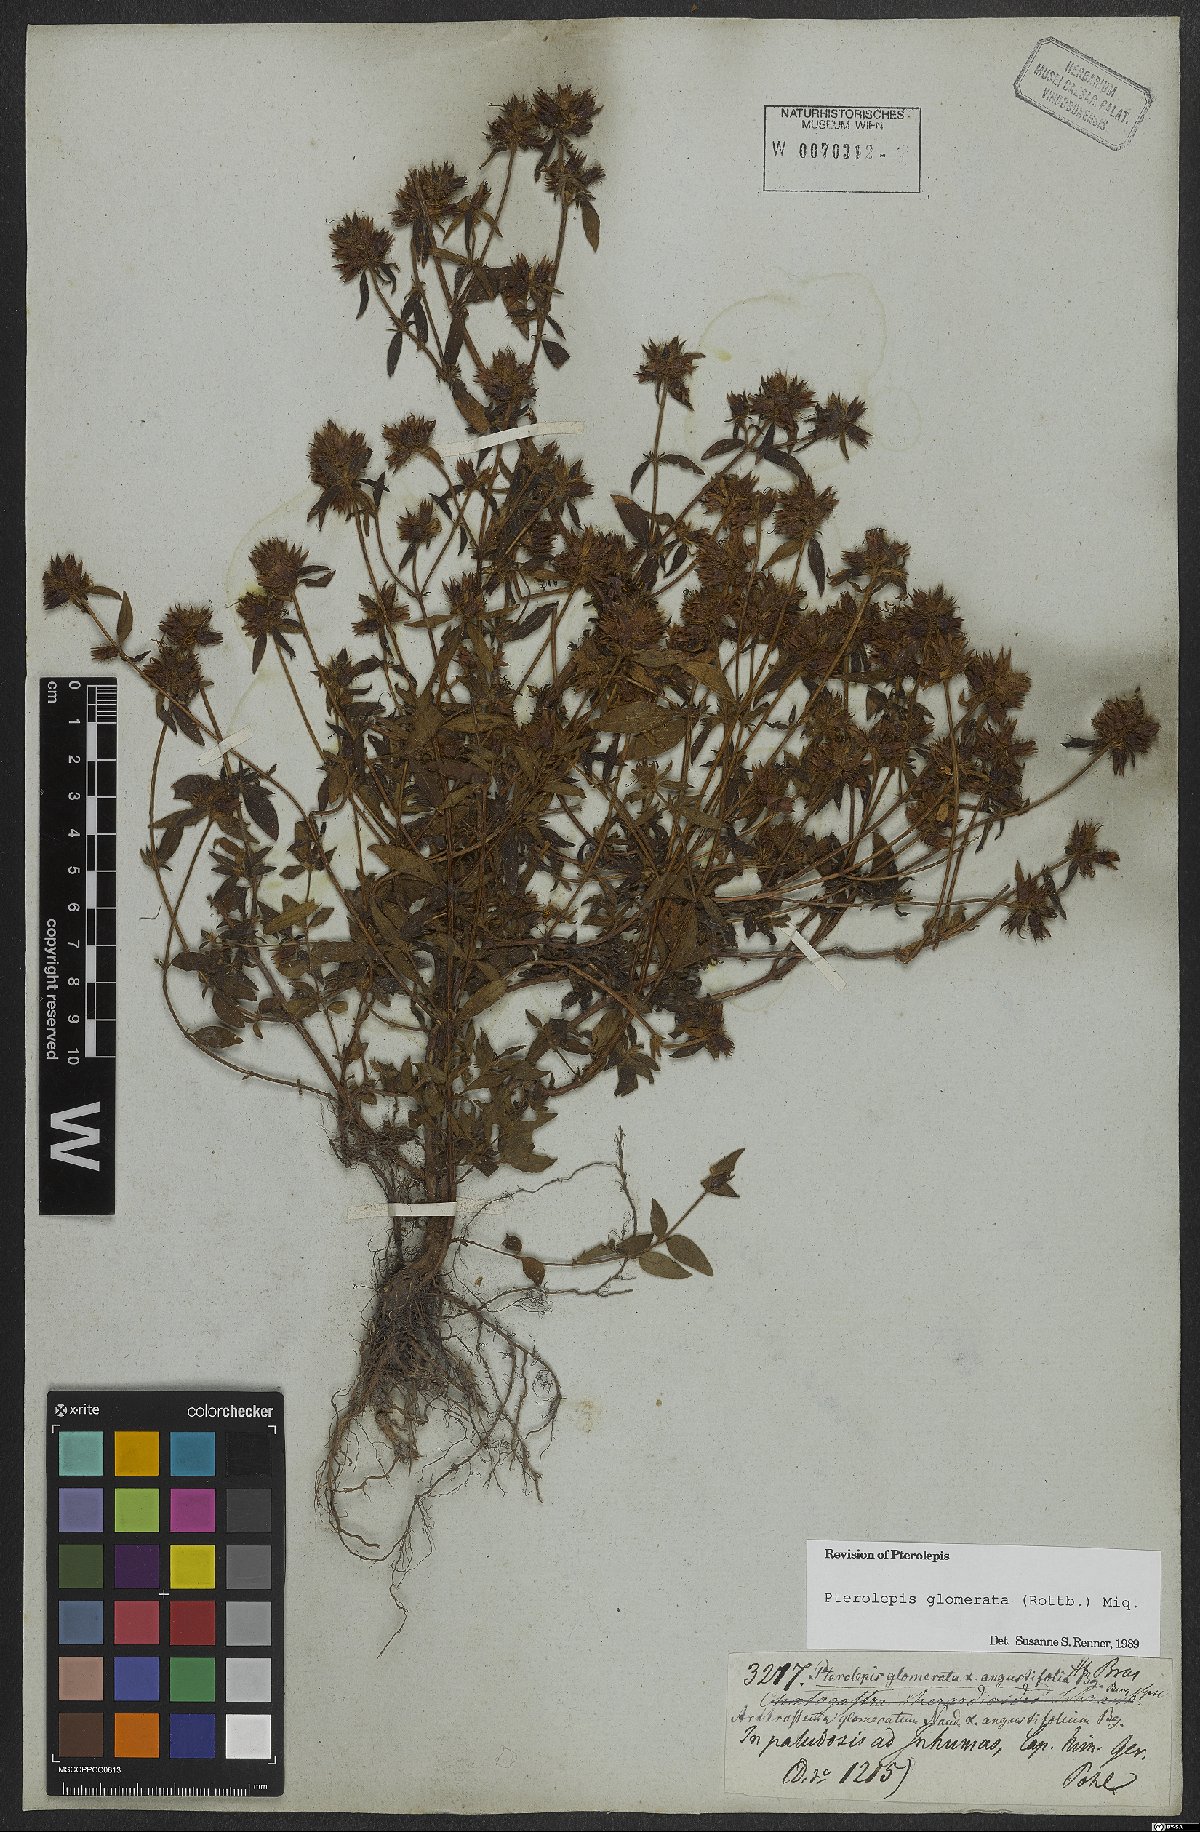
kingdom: Plantae
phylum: Tracheophyta
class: Magnoliopsida
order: Myrtales
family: Melastomataceae
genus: Pterolepis
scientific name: Pterolepis glomerata
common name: False meadowbeauty
